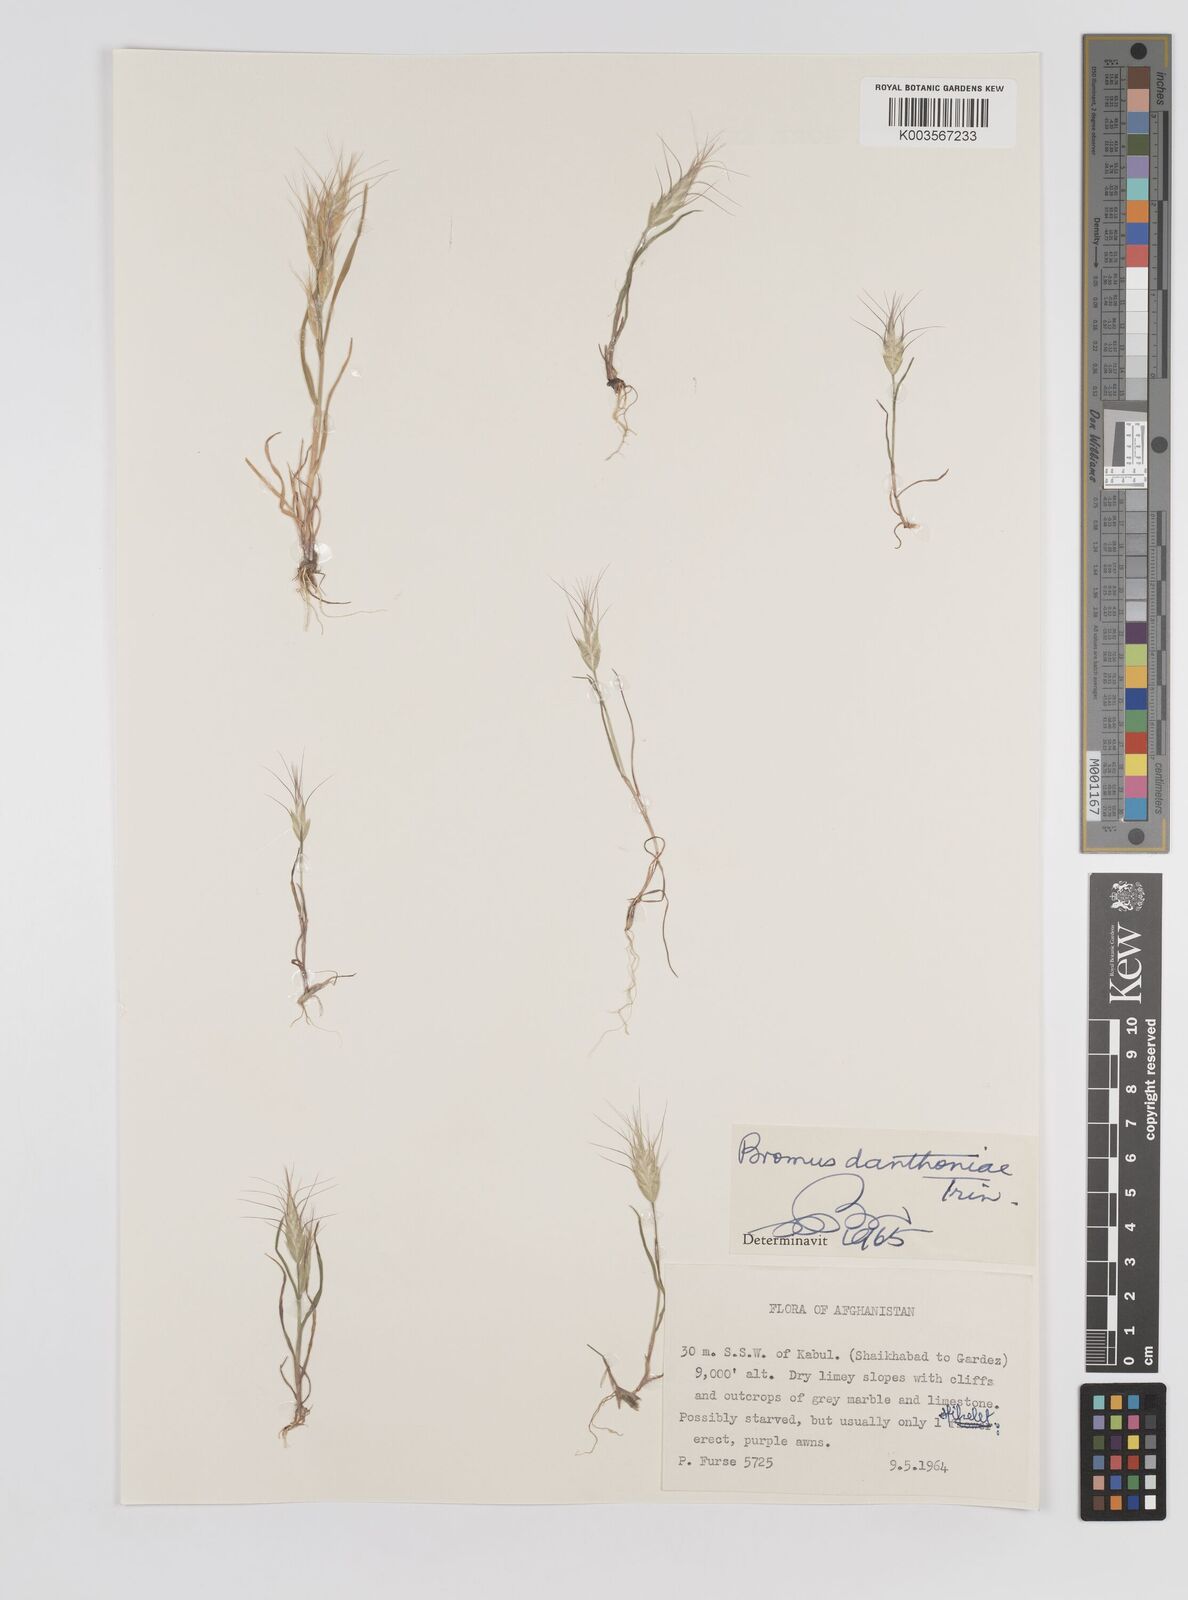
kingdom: Plantae
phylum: Tracheophyta
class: Liliopsida
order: Poales
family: Poaceae
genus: Bromus
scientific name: Bromus danthoniae
